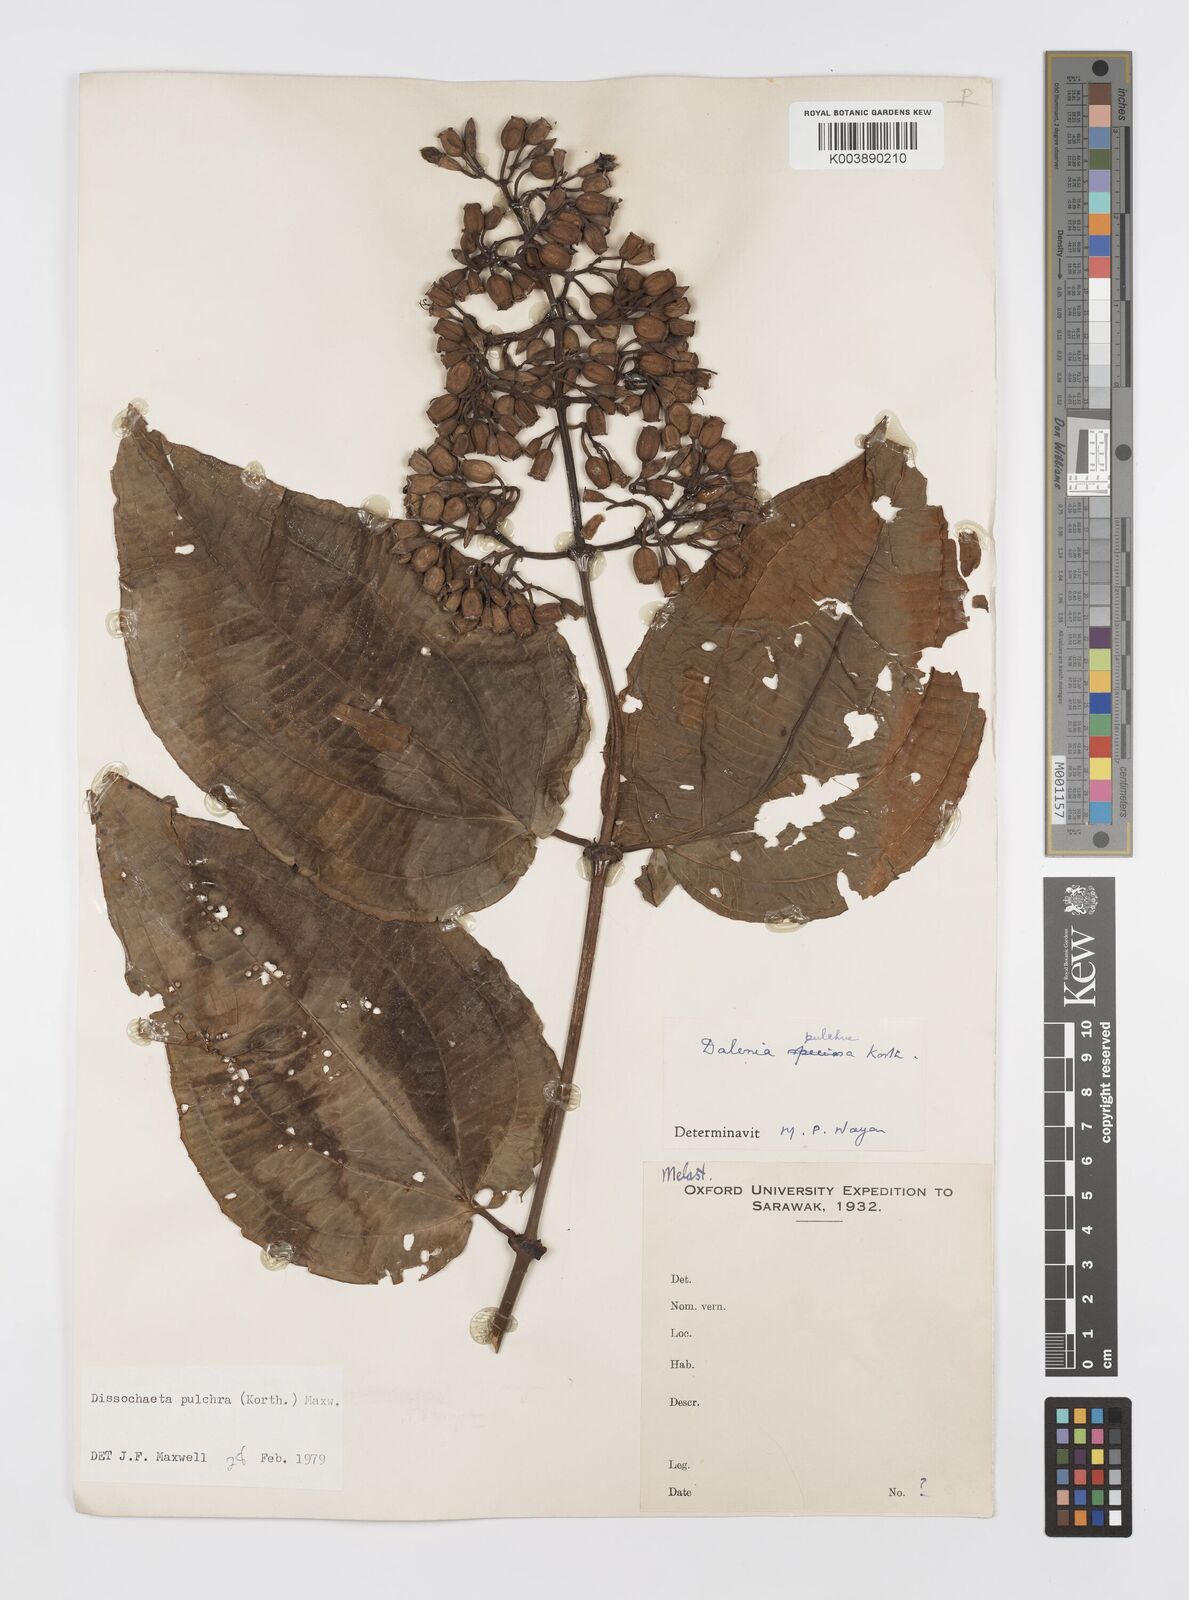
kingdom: Plantae
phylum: Tracheophyta
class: Magnoliopsida
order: Myrtales
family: Melastomataceae
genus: Dalenia
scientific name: Dalenia pulchra
